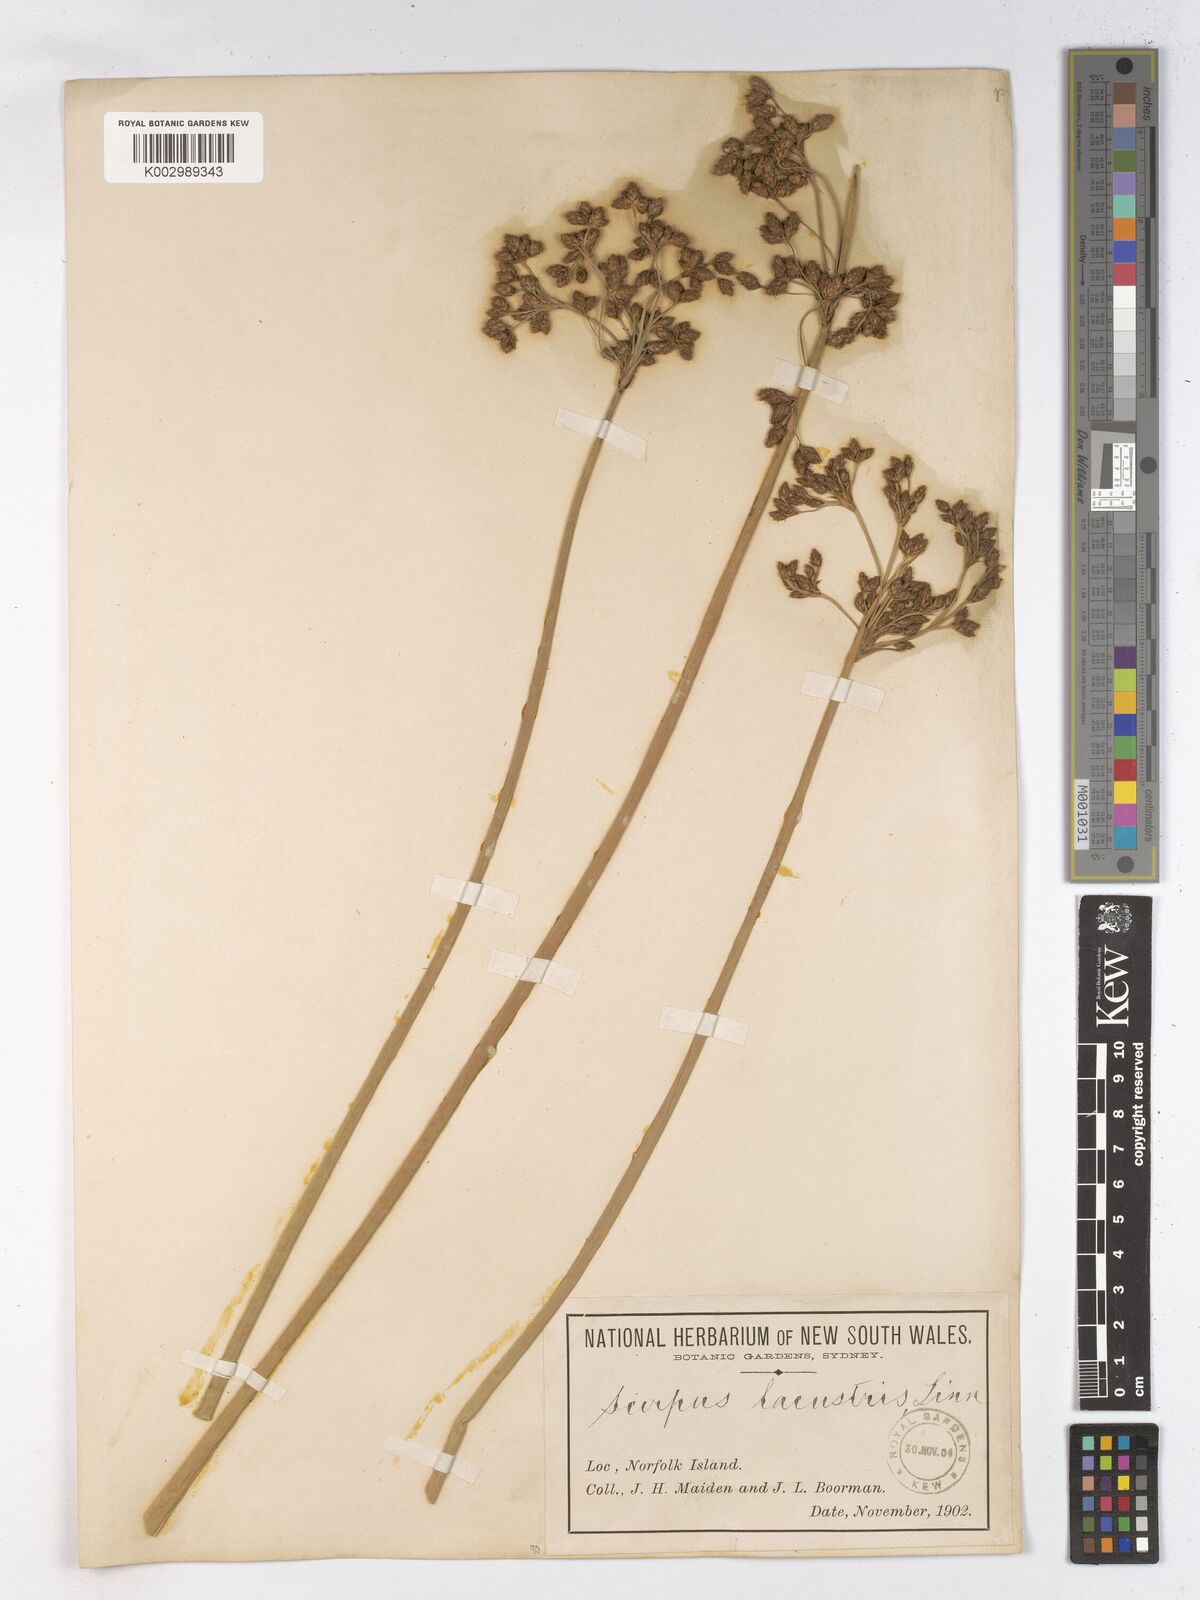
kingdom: Plantae
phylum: Tracheophyta
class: Liliopsida
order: Poales
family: Cyperaceae
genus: Schoenoplectus
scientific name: Schoenoplectus tabernaemontani
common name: Grey club-rush
